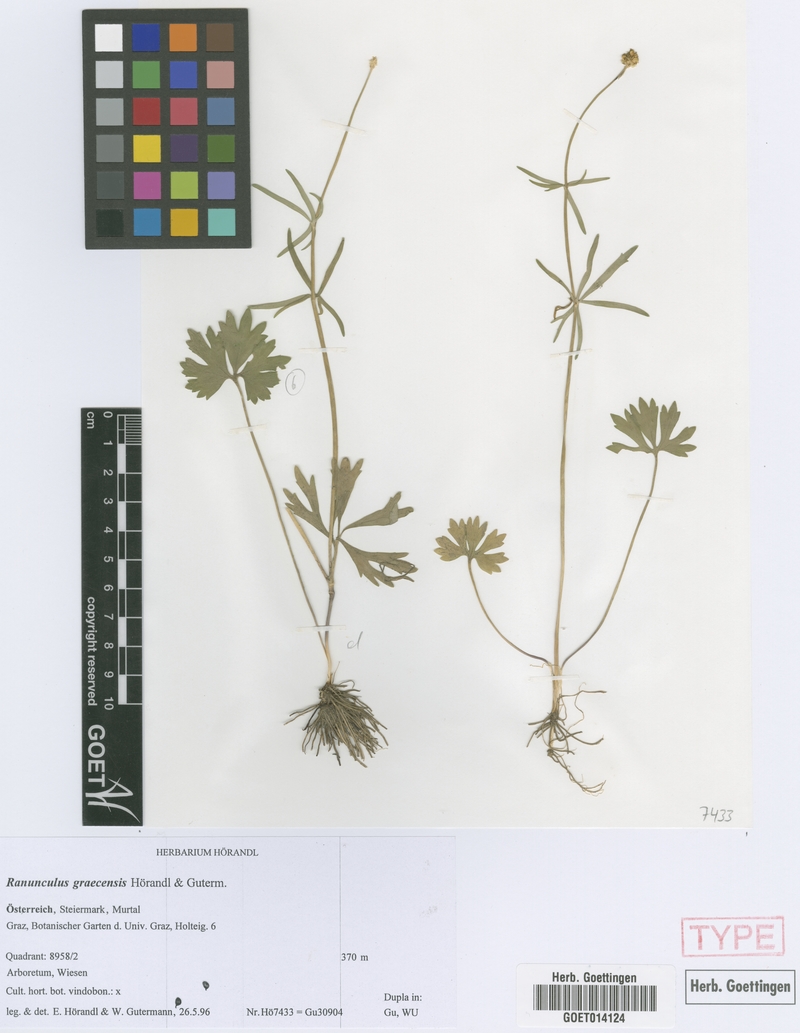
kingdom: Plantae
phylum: Tracheophyta
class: Magnoliopsida
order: Ranunculales
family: Ranunculaceae
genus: Ranunculus
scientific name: Ranunculus graecensis
